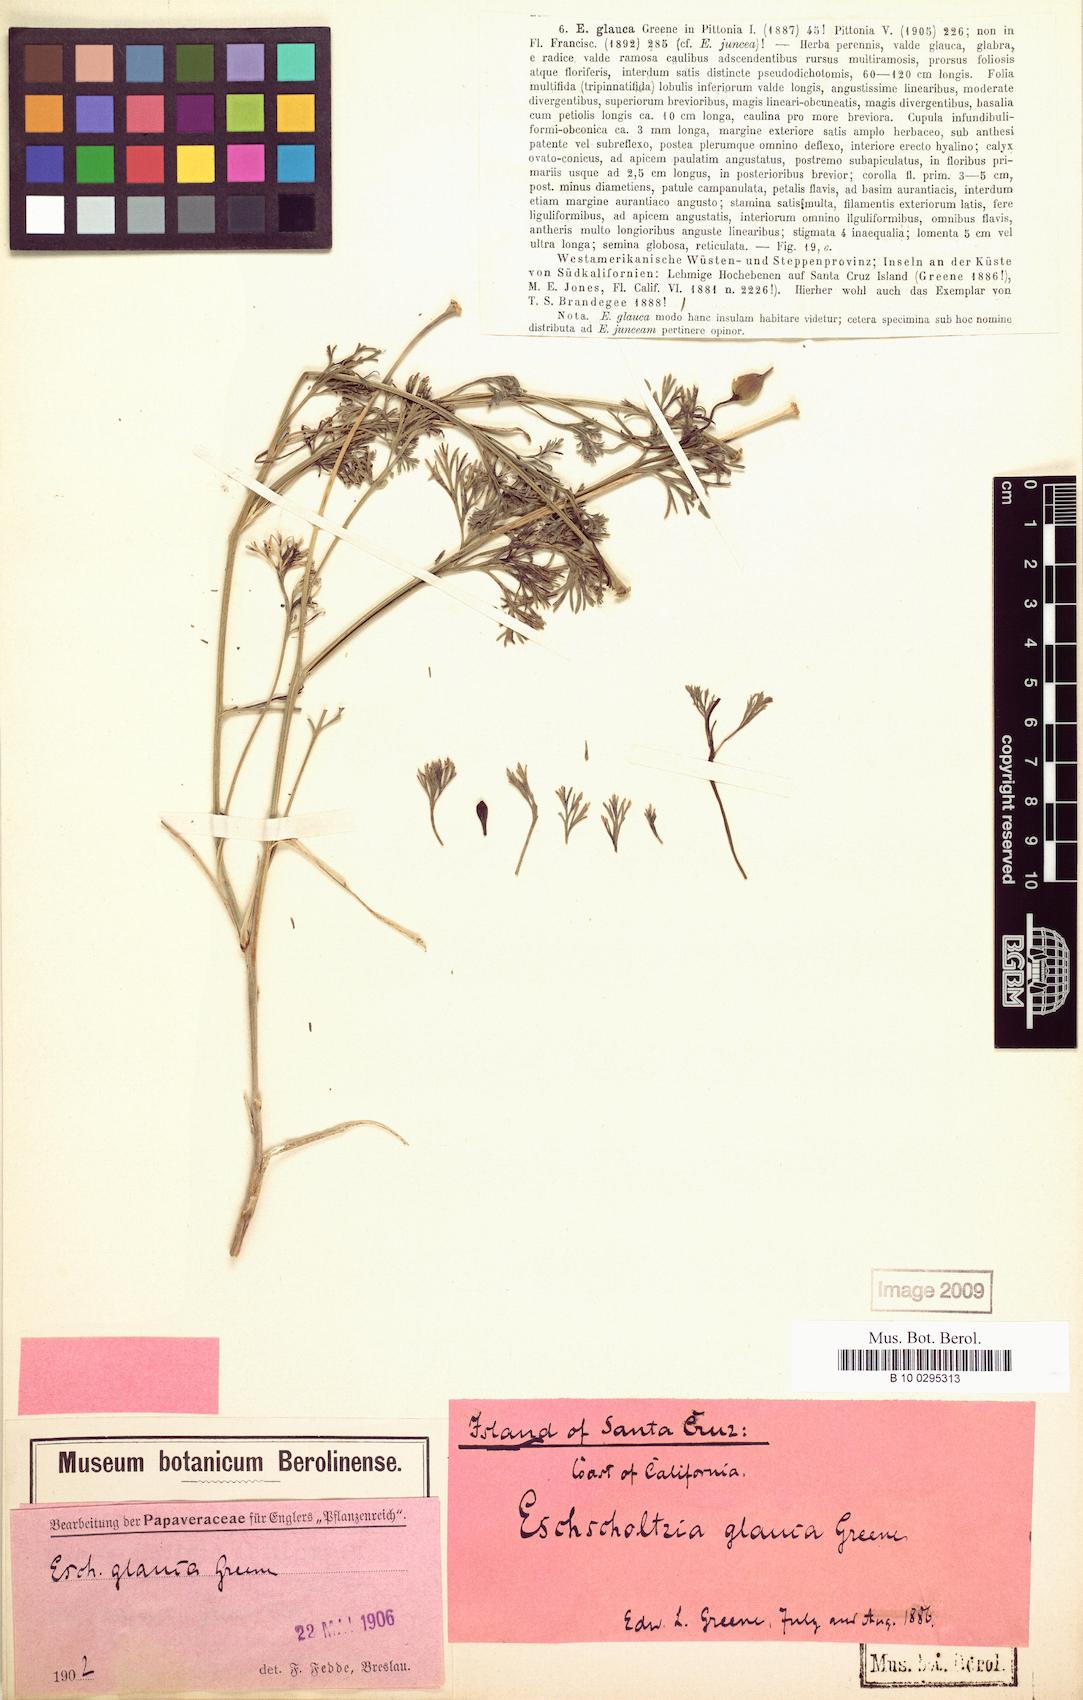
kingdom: Plantae
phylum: Tracheophyta
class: Magnoliopsida
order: Ranunculales
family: Papaveraceae
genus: Eschscholzia
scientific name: Eschscholzia californica
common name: California poppy
